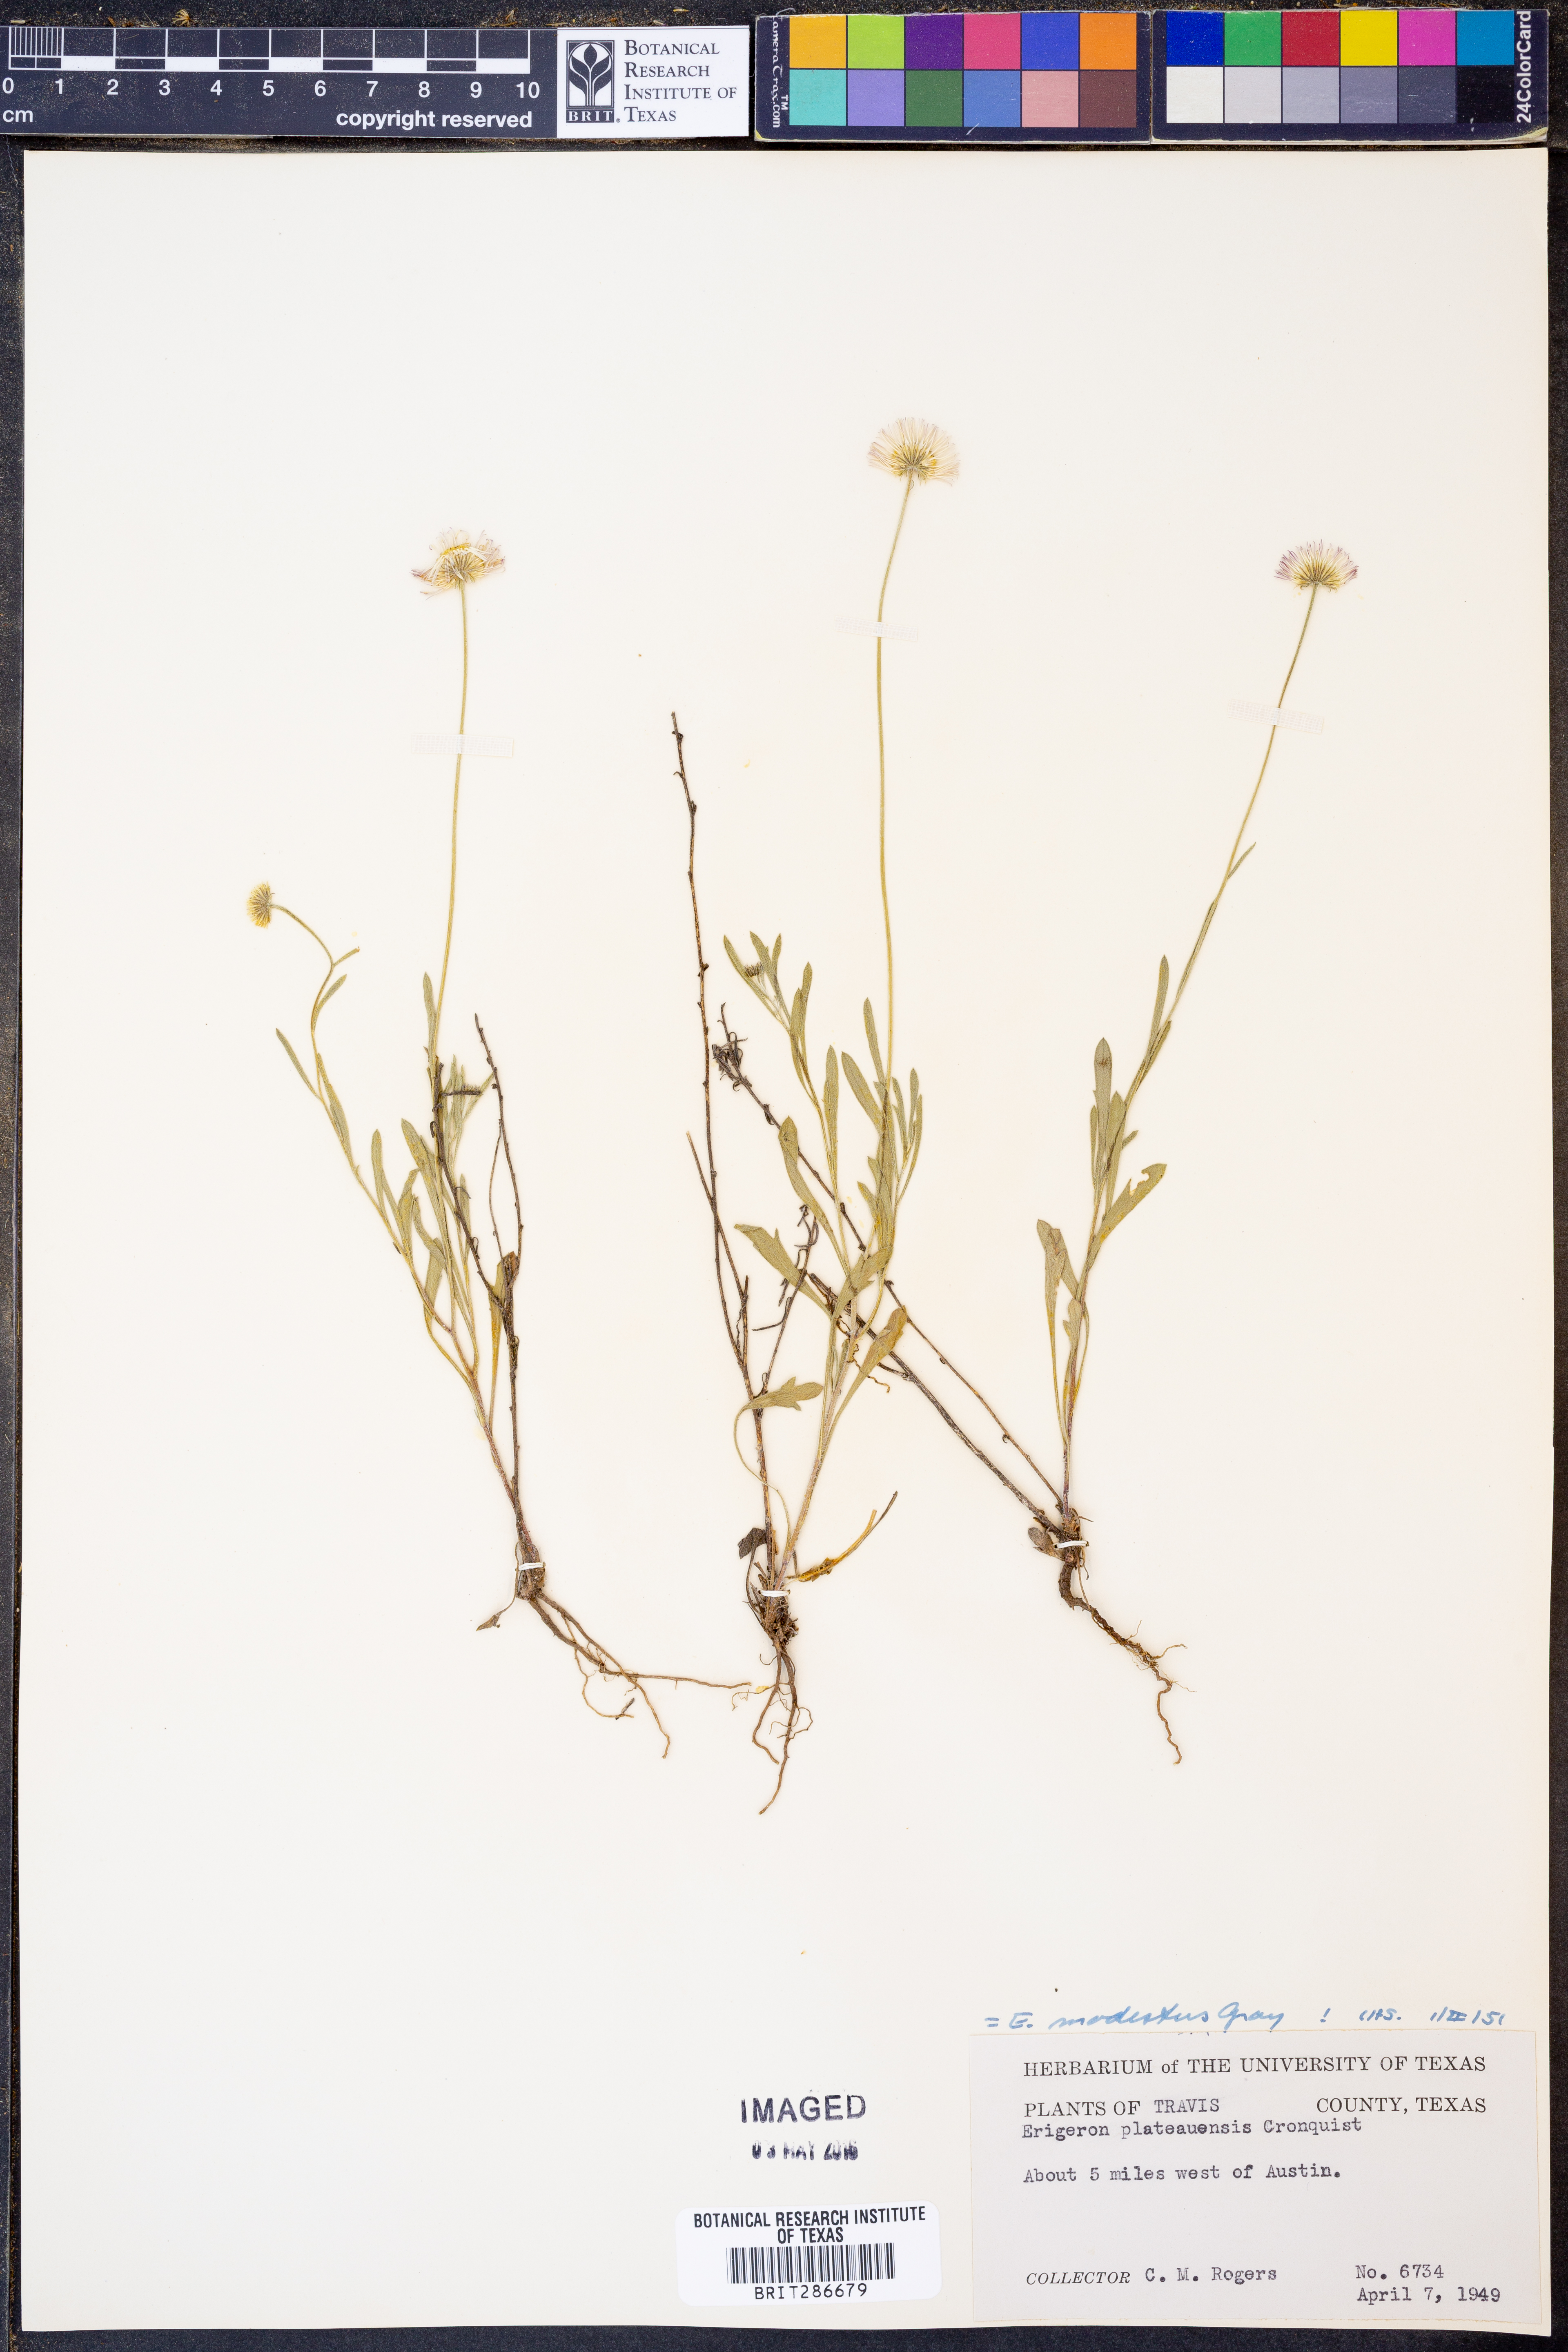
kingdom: Plantae
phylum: Tracheophyta
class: Magnoliopsida
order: Asterales
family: Asteraceae
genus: Erigeron
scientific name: Erigeron modestus
